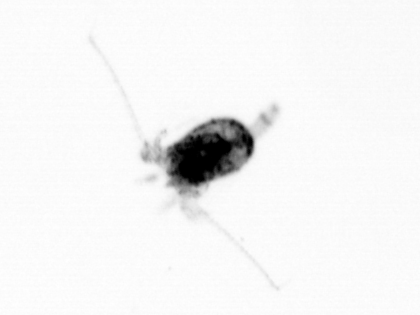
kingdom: Animalia
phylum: Arthropoda
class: Copepoda
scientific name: Copepoda
